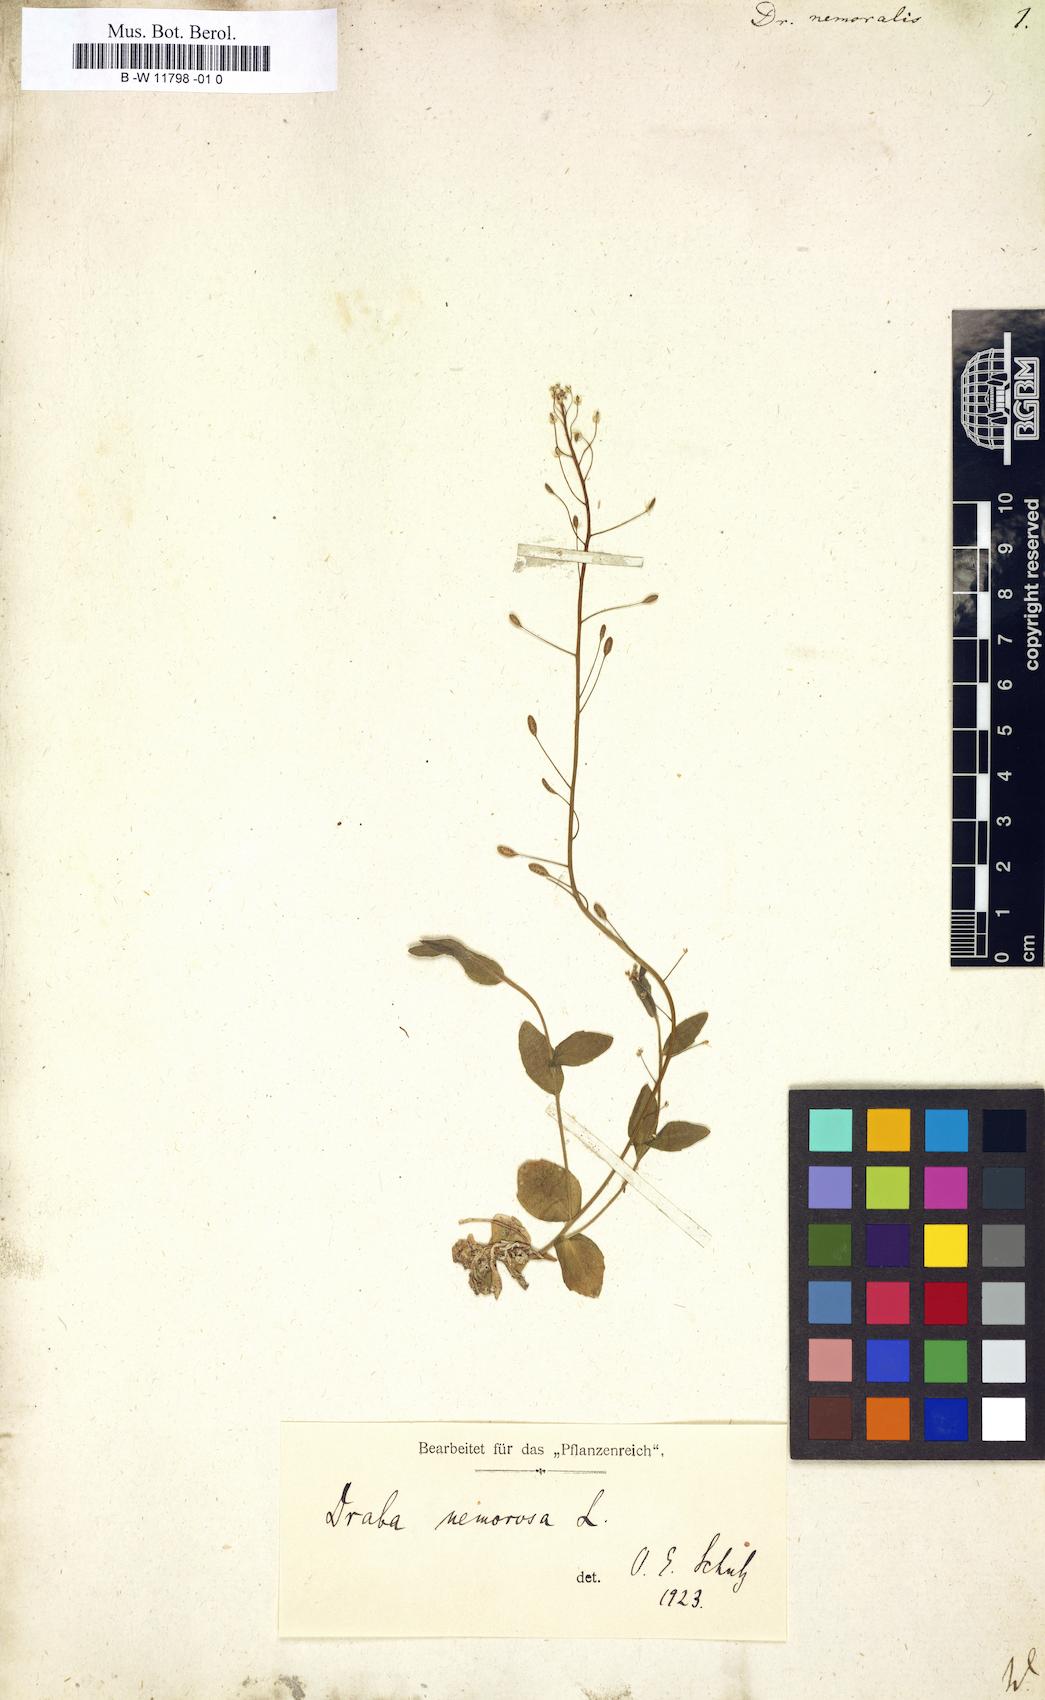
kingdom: Plantae
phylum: Tracheophyta
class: Magnoliopsida
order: Brassicales
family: Brassicaceae
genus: Draba
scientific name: Draba nemoralis
